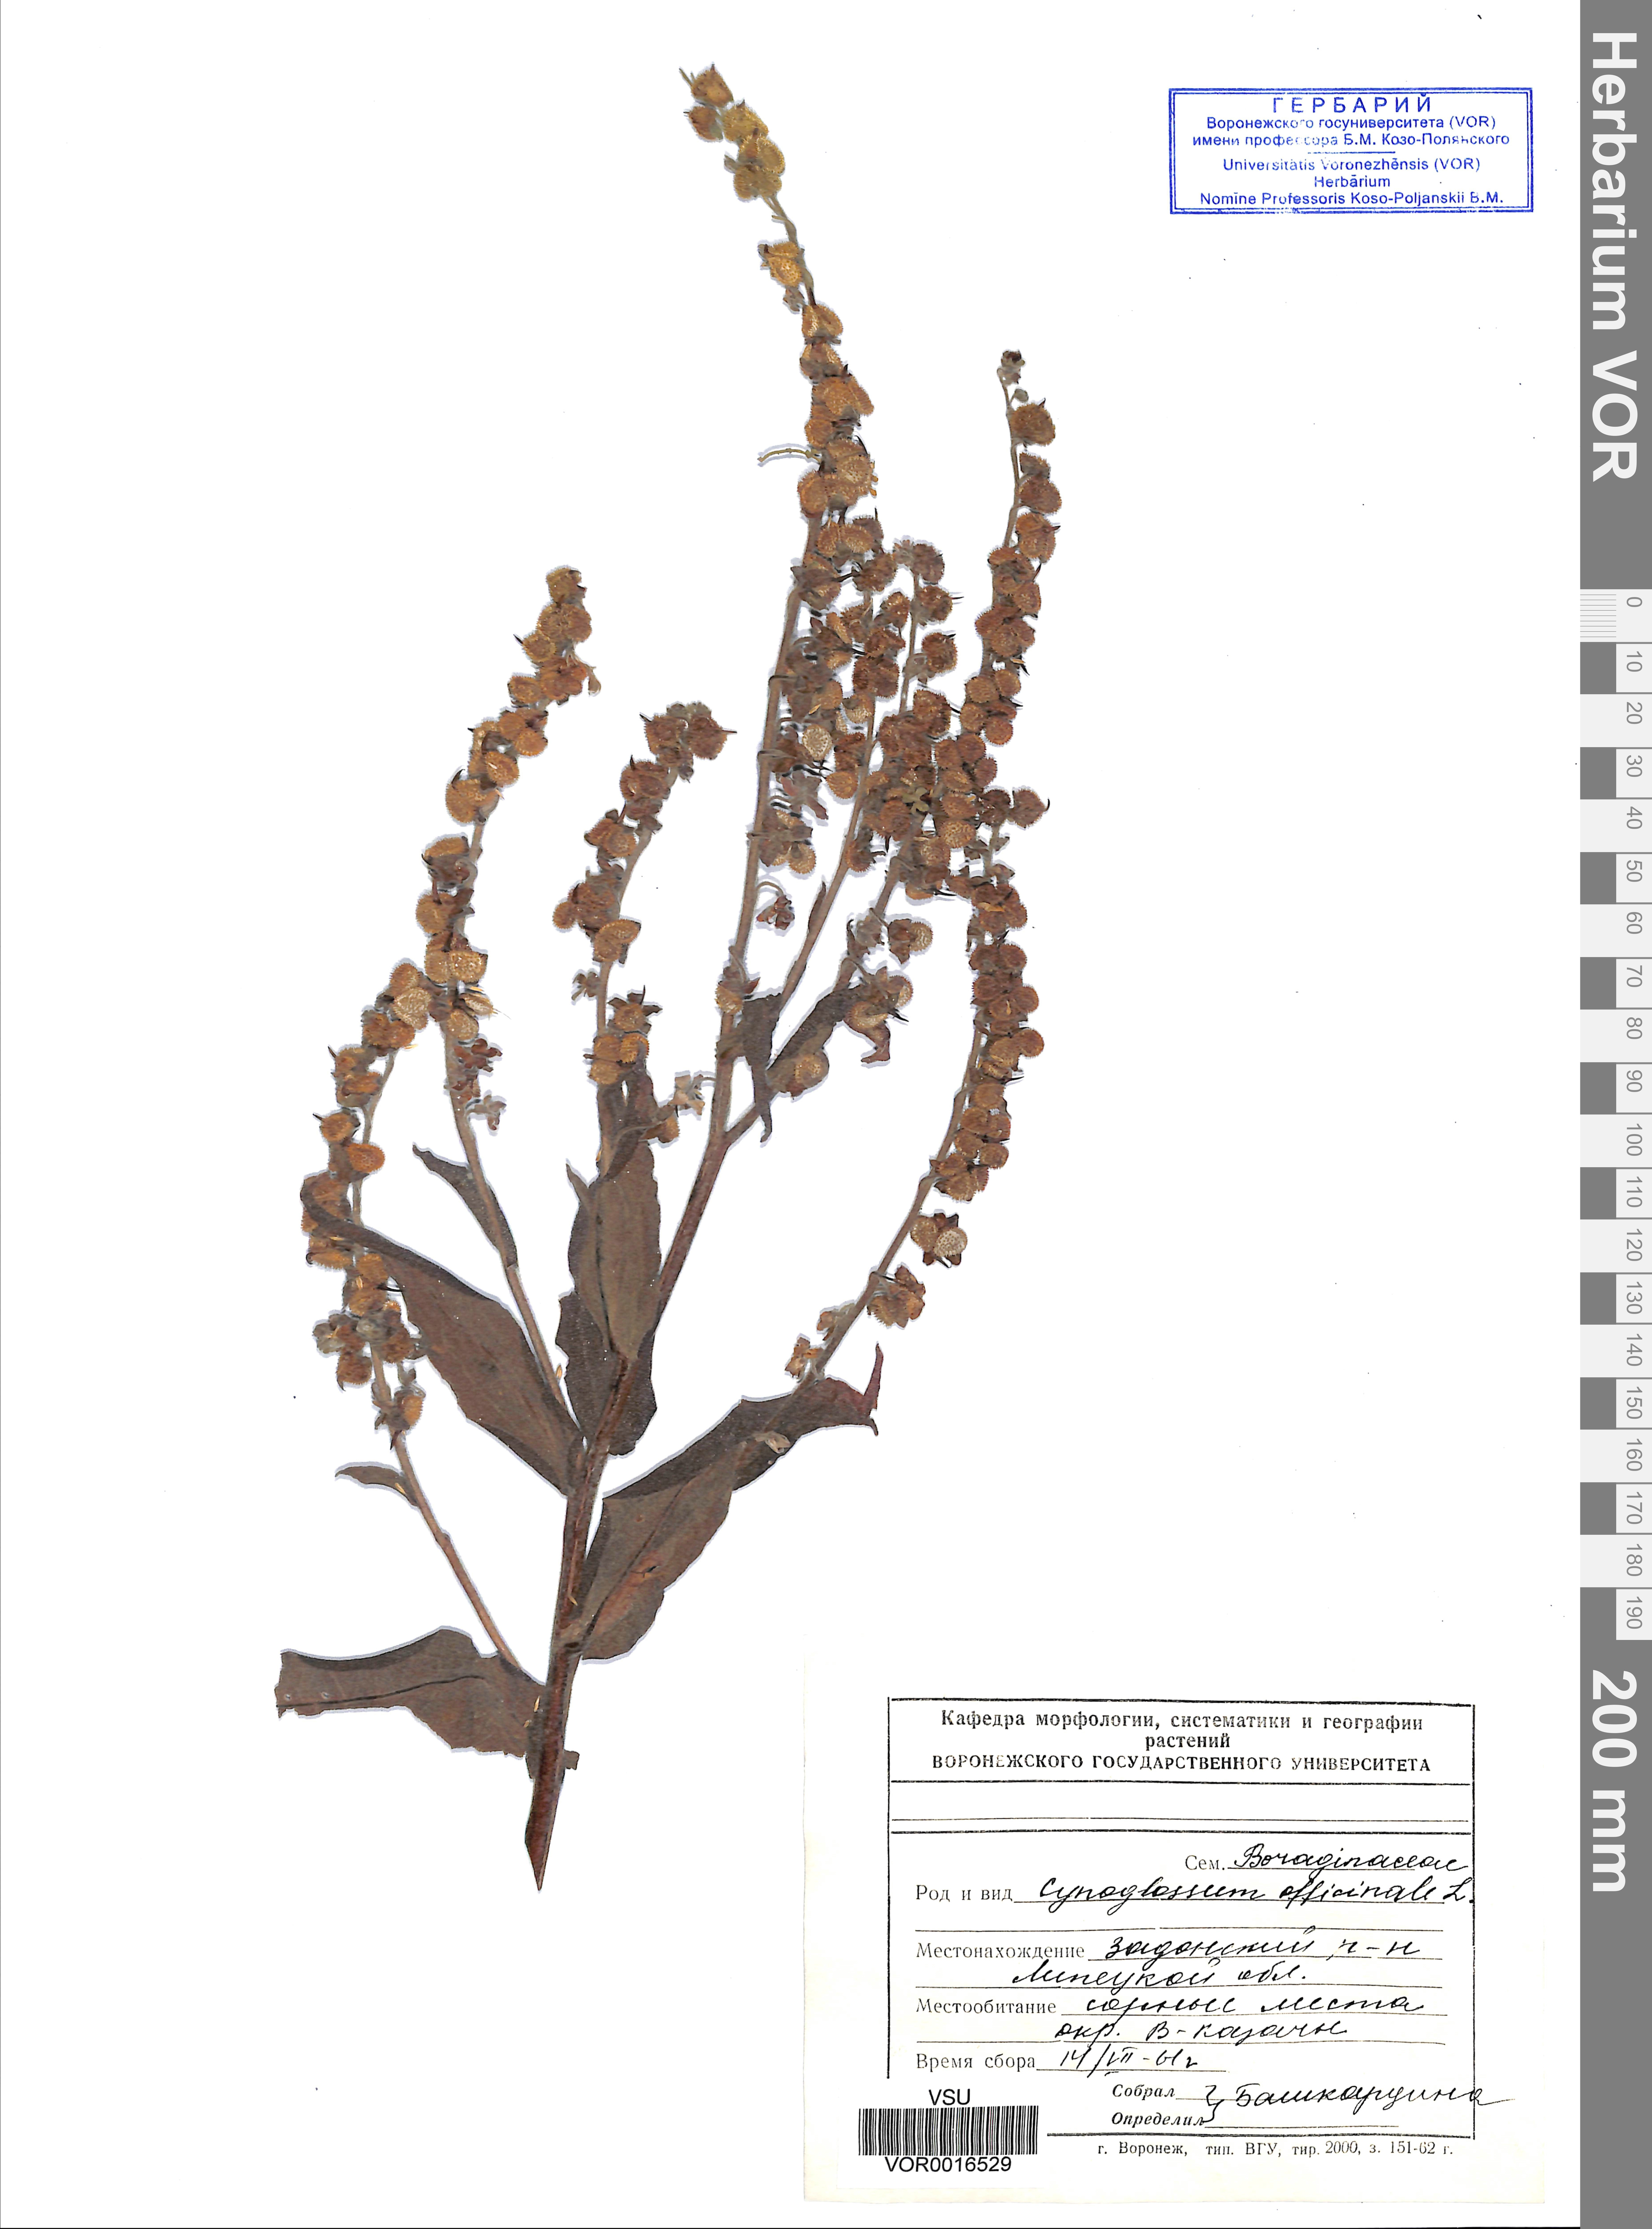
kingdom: Plantae
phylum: Tracheophyta
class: Magnoliopsida
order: Boraginales
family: Boraginaceae
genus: Cynoglossum
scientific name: Cynoglossum officinale
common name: Hound's-tongue
